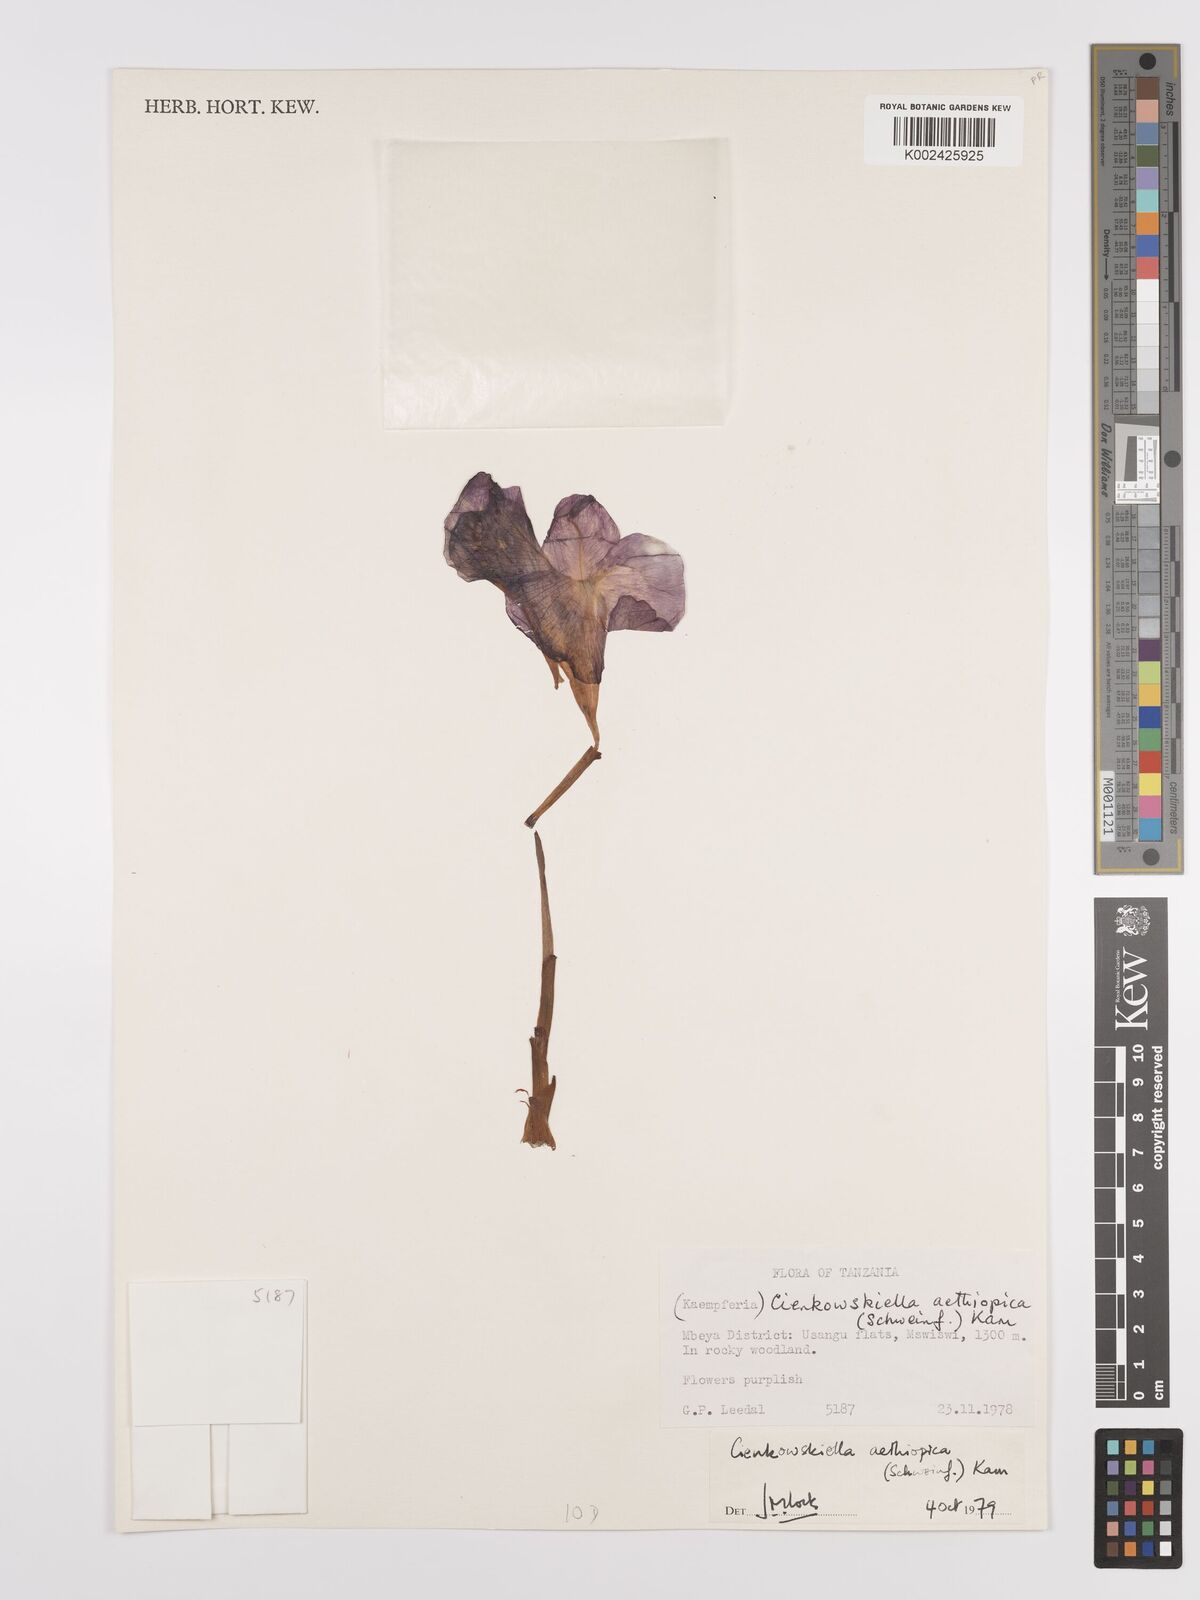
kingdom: Plantae
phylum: Tracheophyta
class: Liliopsida
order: Zingiberales
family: Zingiberaceae
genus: Siphonochilus
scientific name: Siphonochilus aethiopicus
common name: African-ginger
